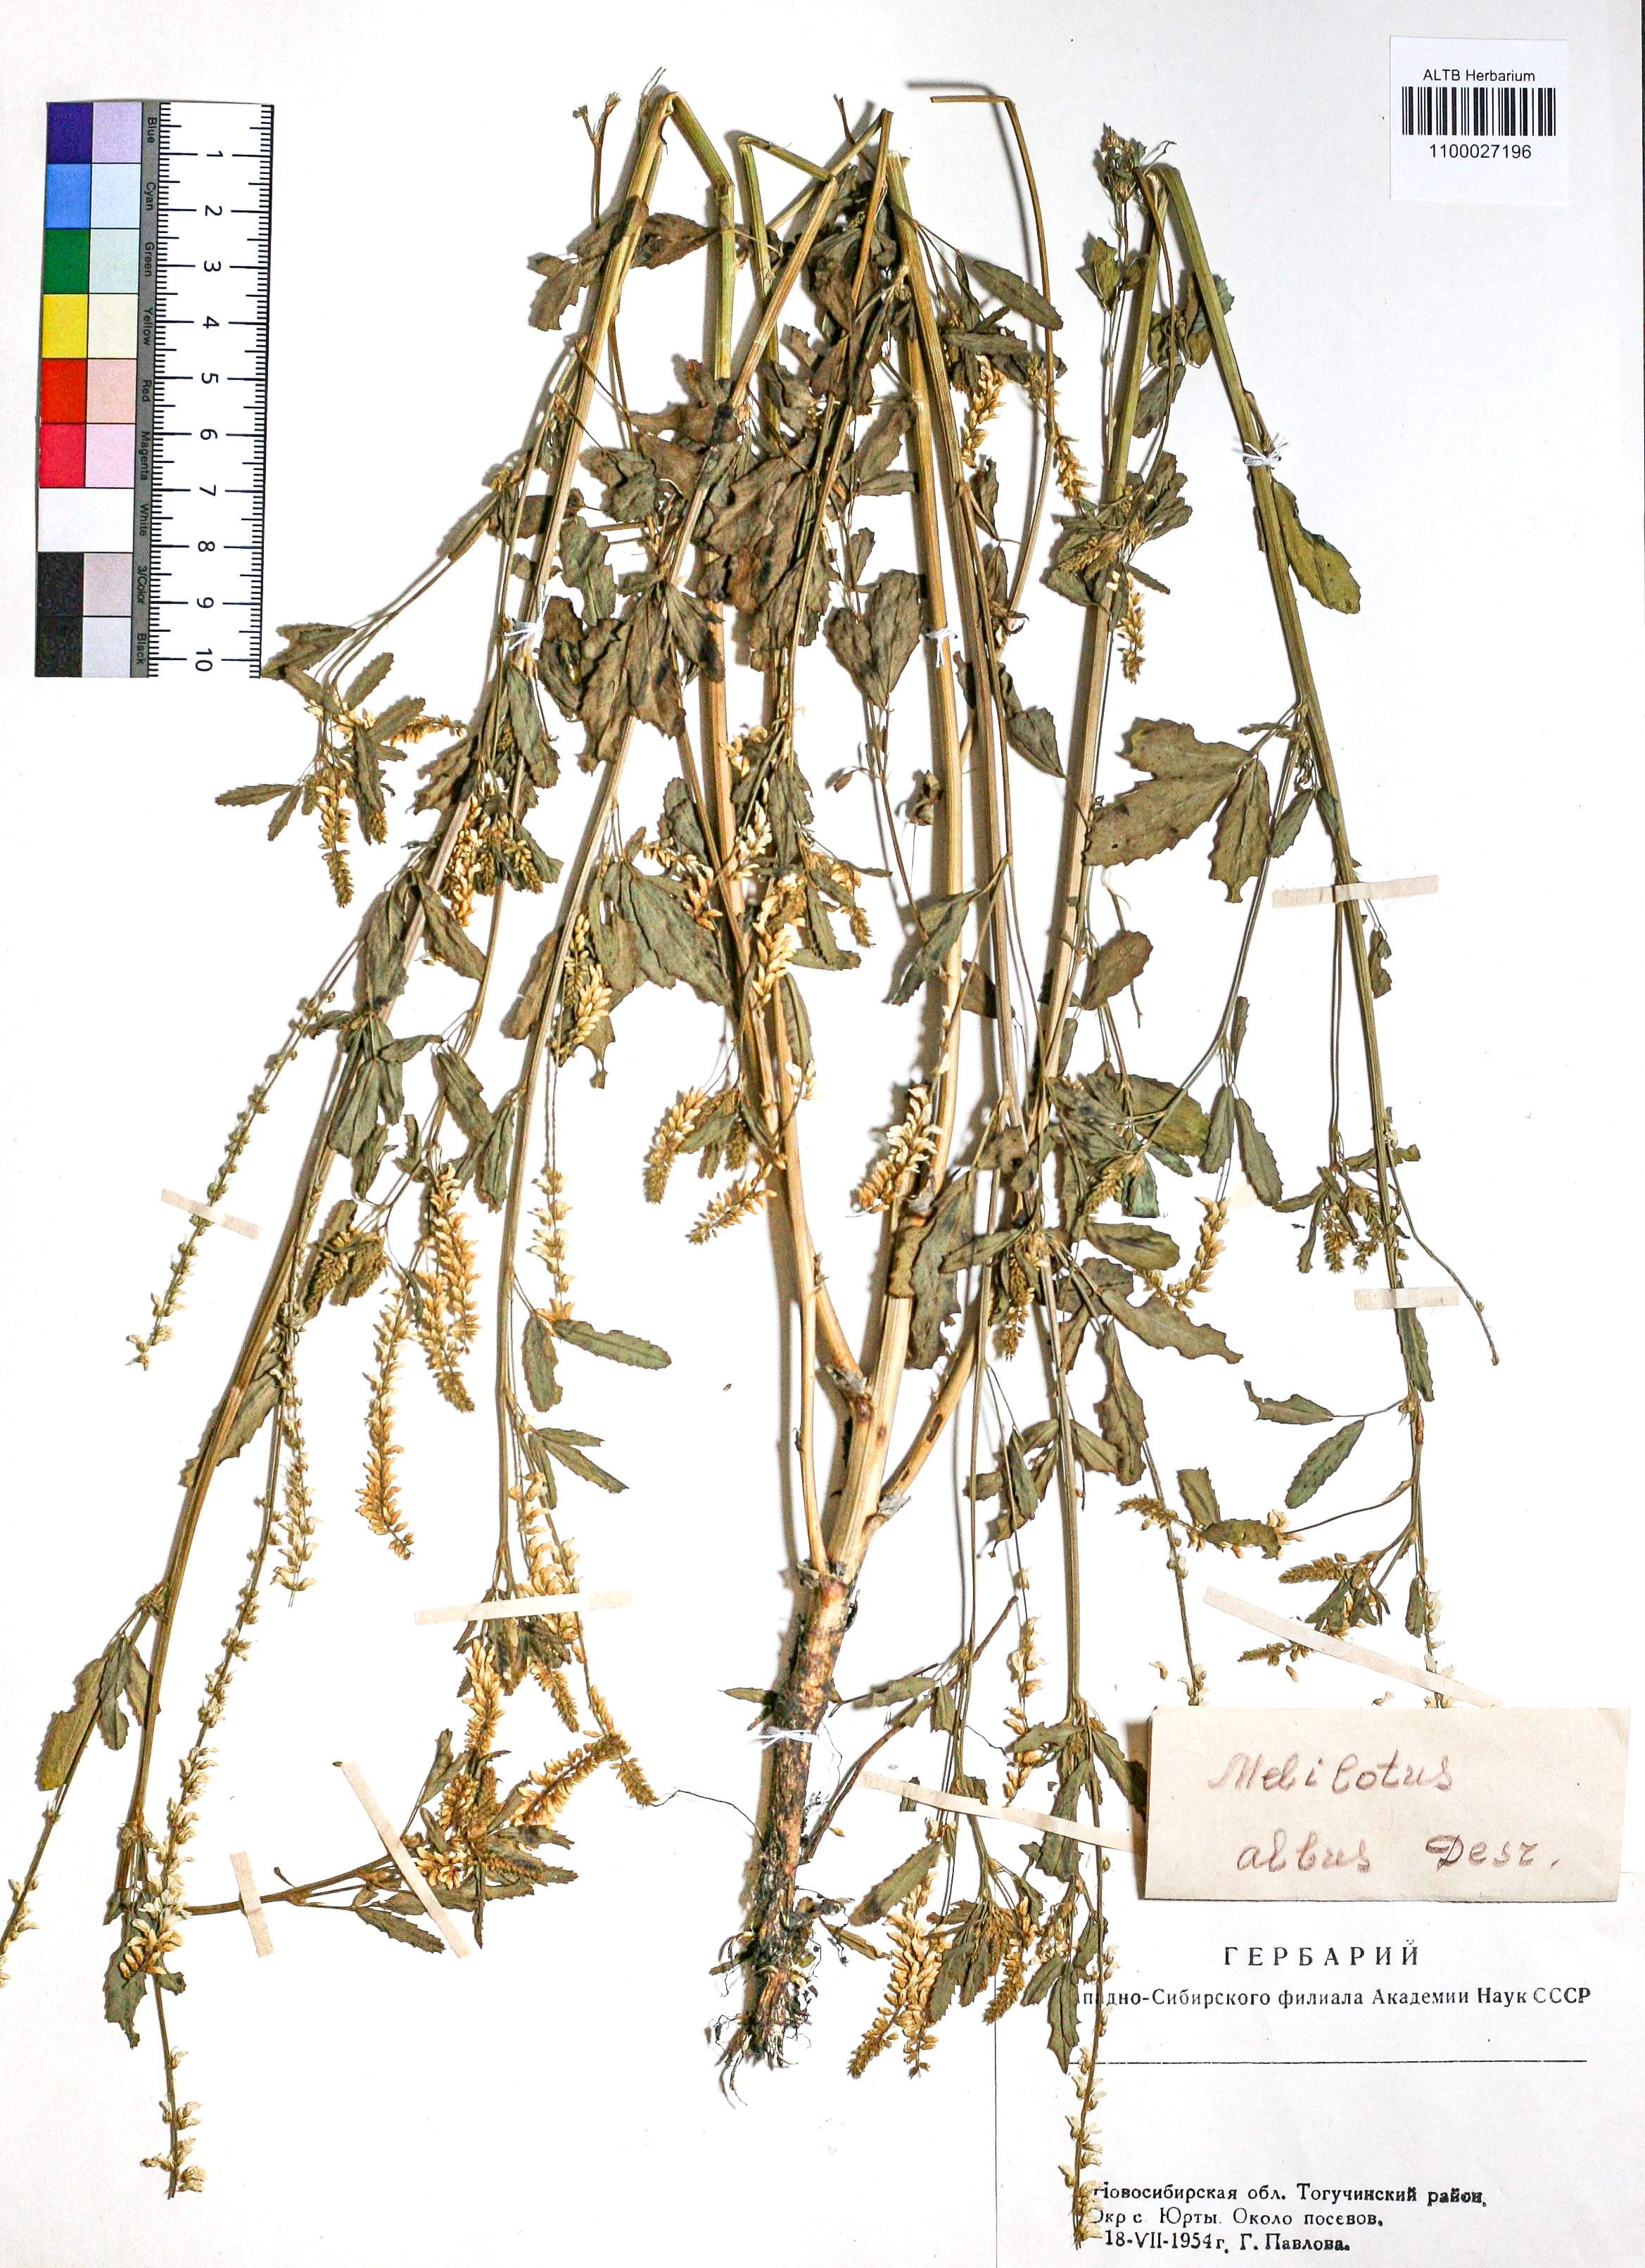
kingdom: Plantae
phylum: Tracheophyta
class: Magnoliopsida
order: Fabales
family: Fabaceae
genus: Melilotus
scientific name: Melilotus albus
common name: White melilot
